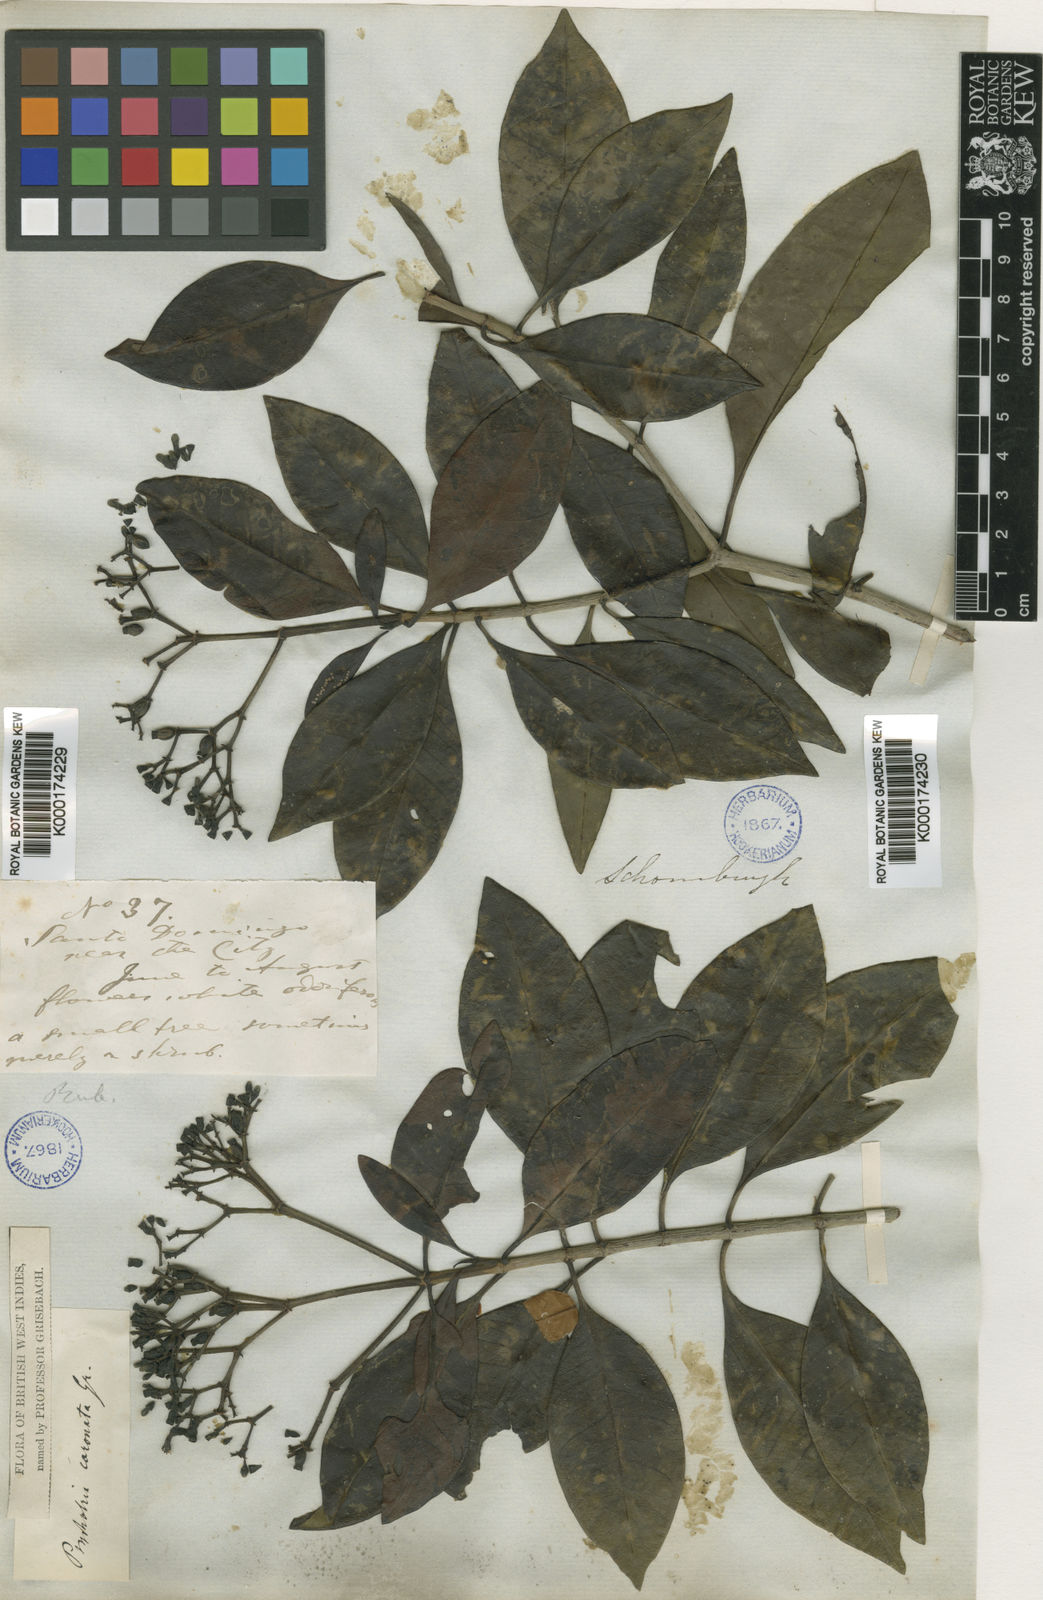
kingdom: Plantae
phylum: Tracheophyta
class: Magnoliopsida
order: Gentianales
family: Rubiaceae
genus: Psychotria
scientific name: Psychotria revoluta
